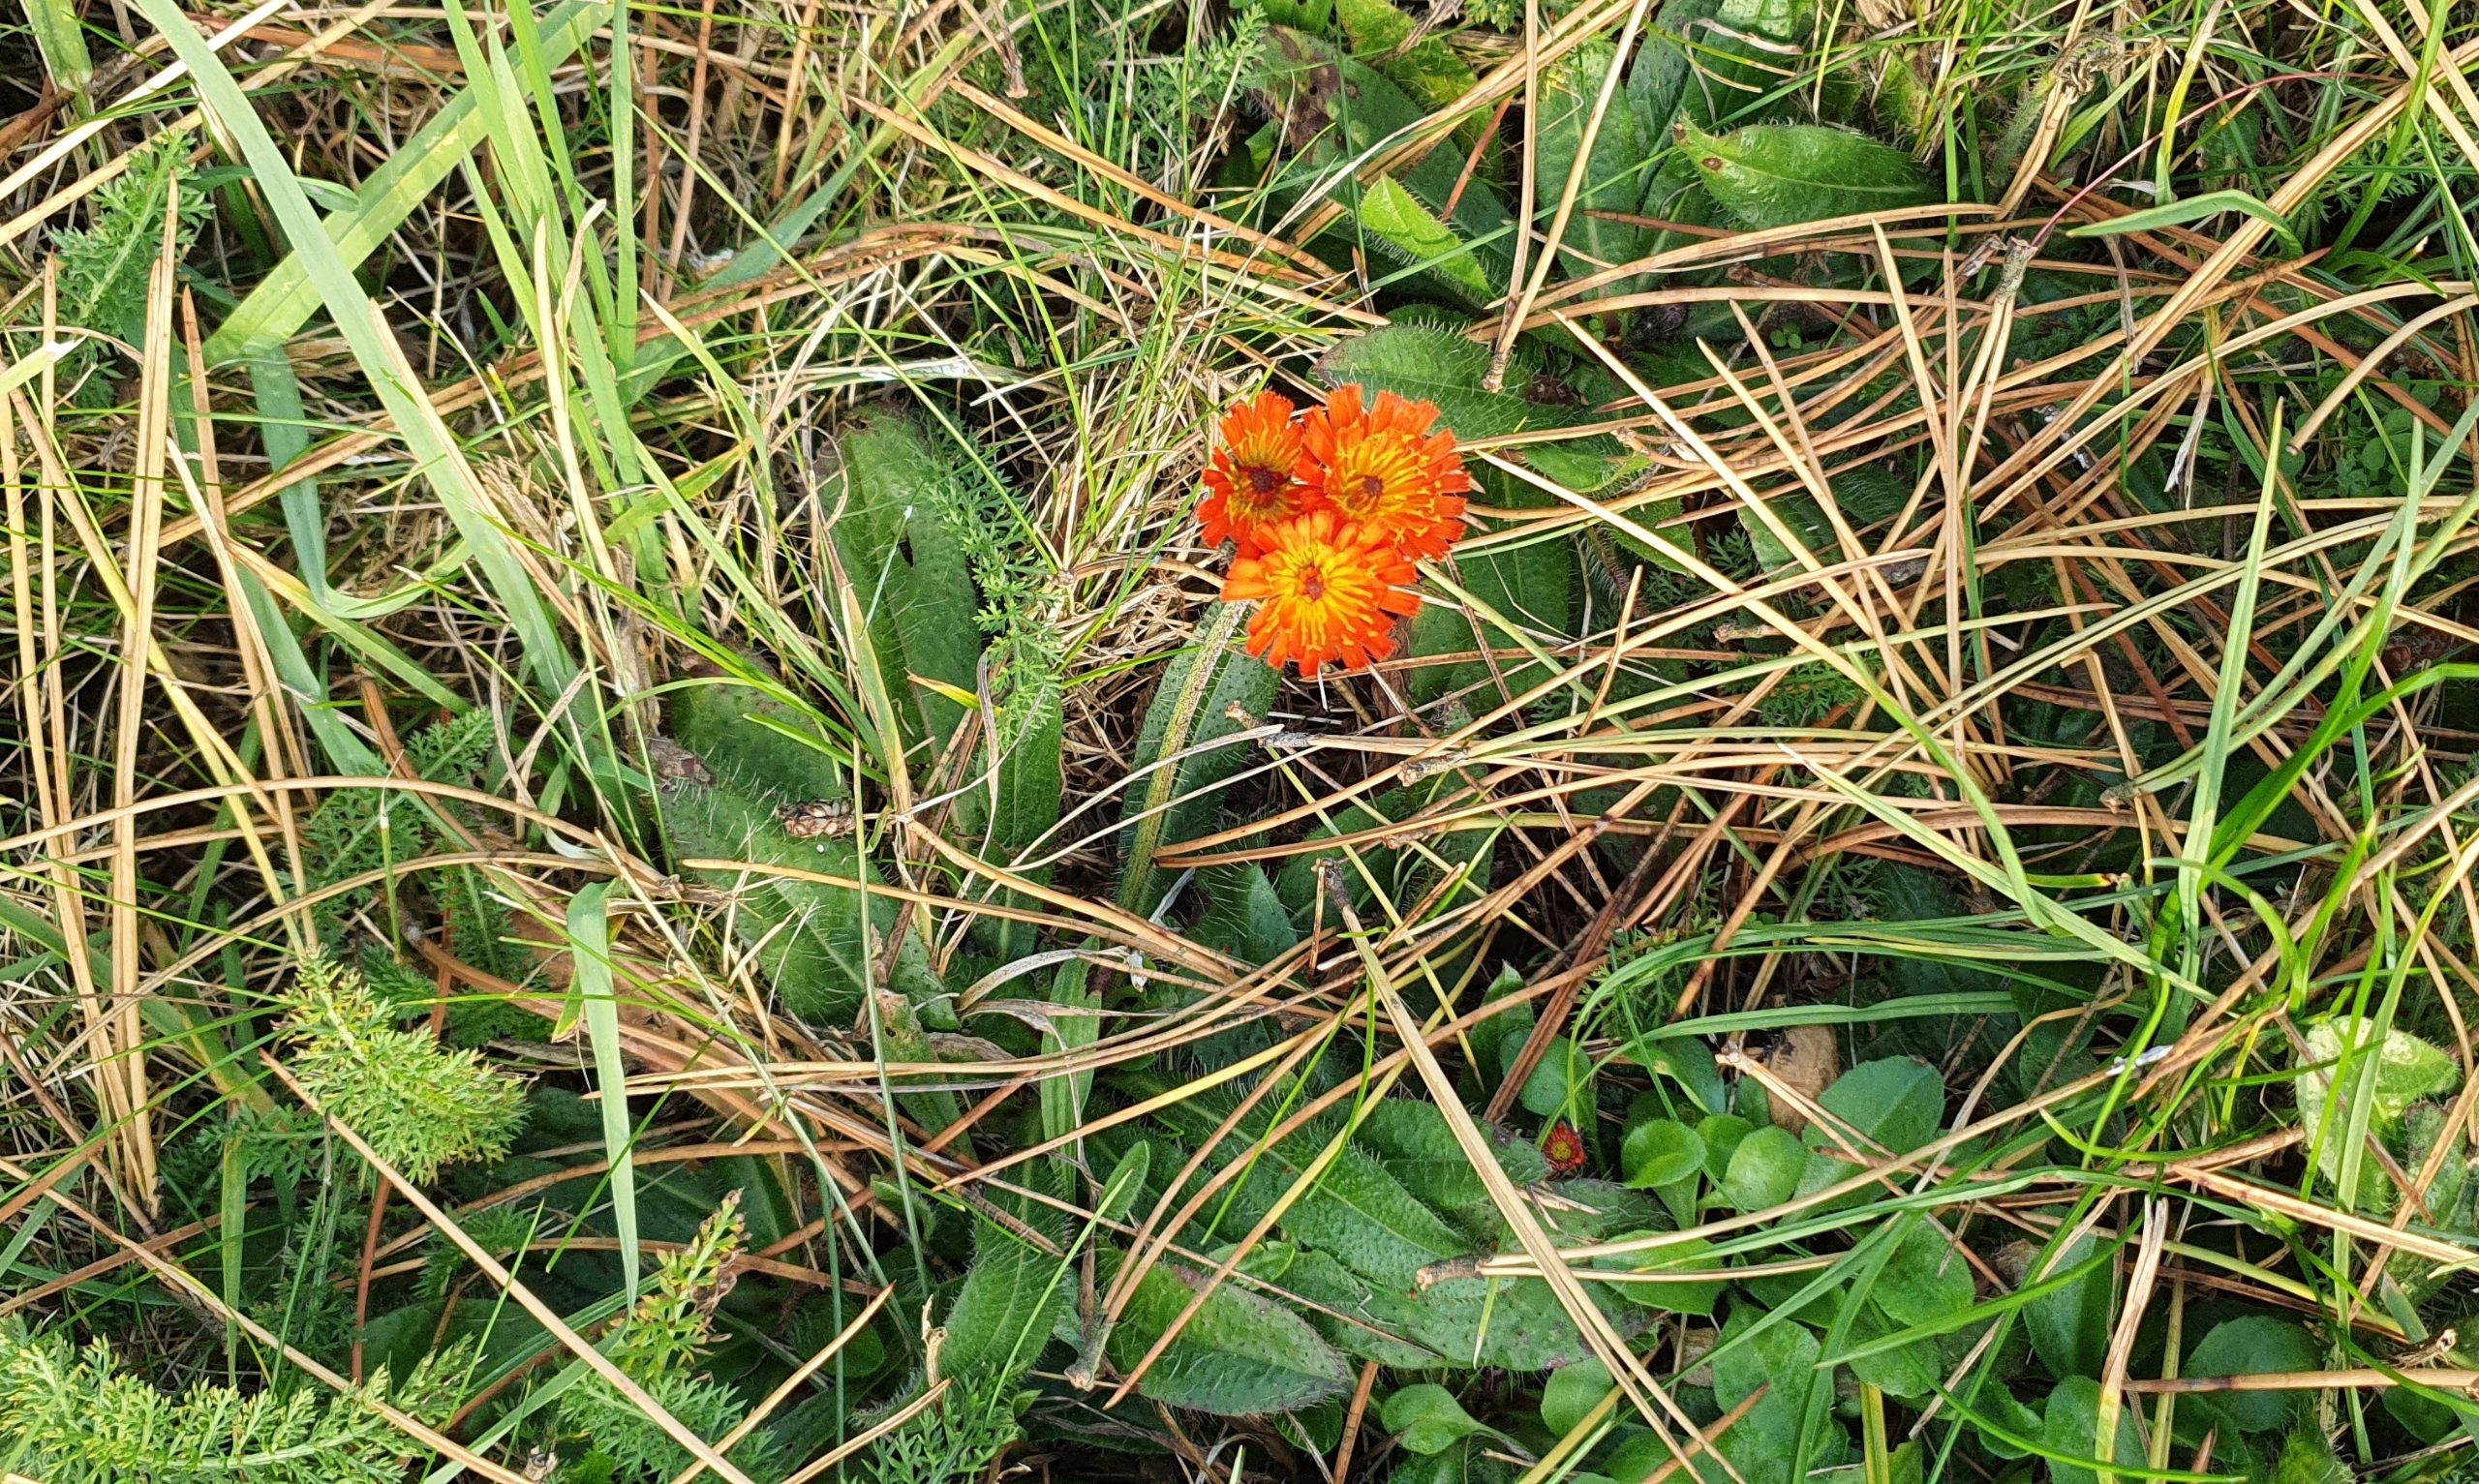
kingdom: Plantae
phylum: Tracheophyta
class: Magnoliopsida
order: Asterales
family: Asteraceae
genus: Pilosella
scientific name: Pilosella aurantiaca
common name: Pomerans-høgeurt
